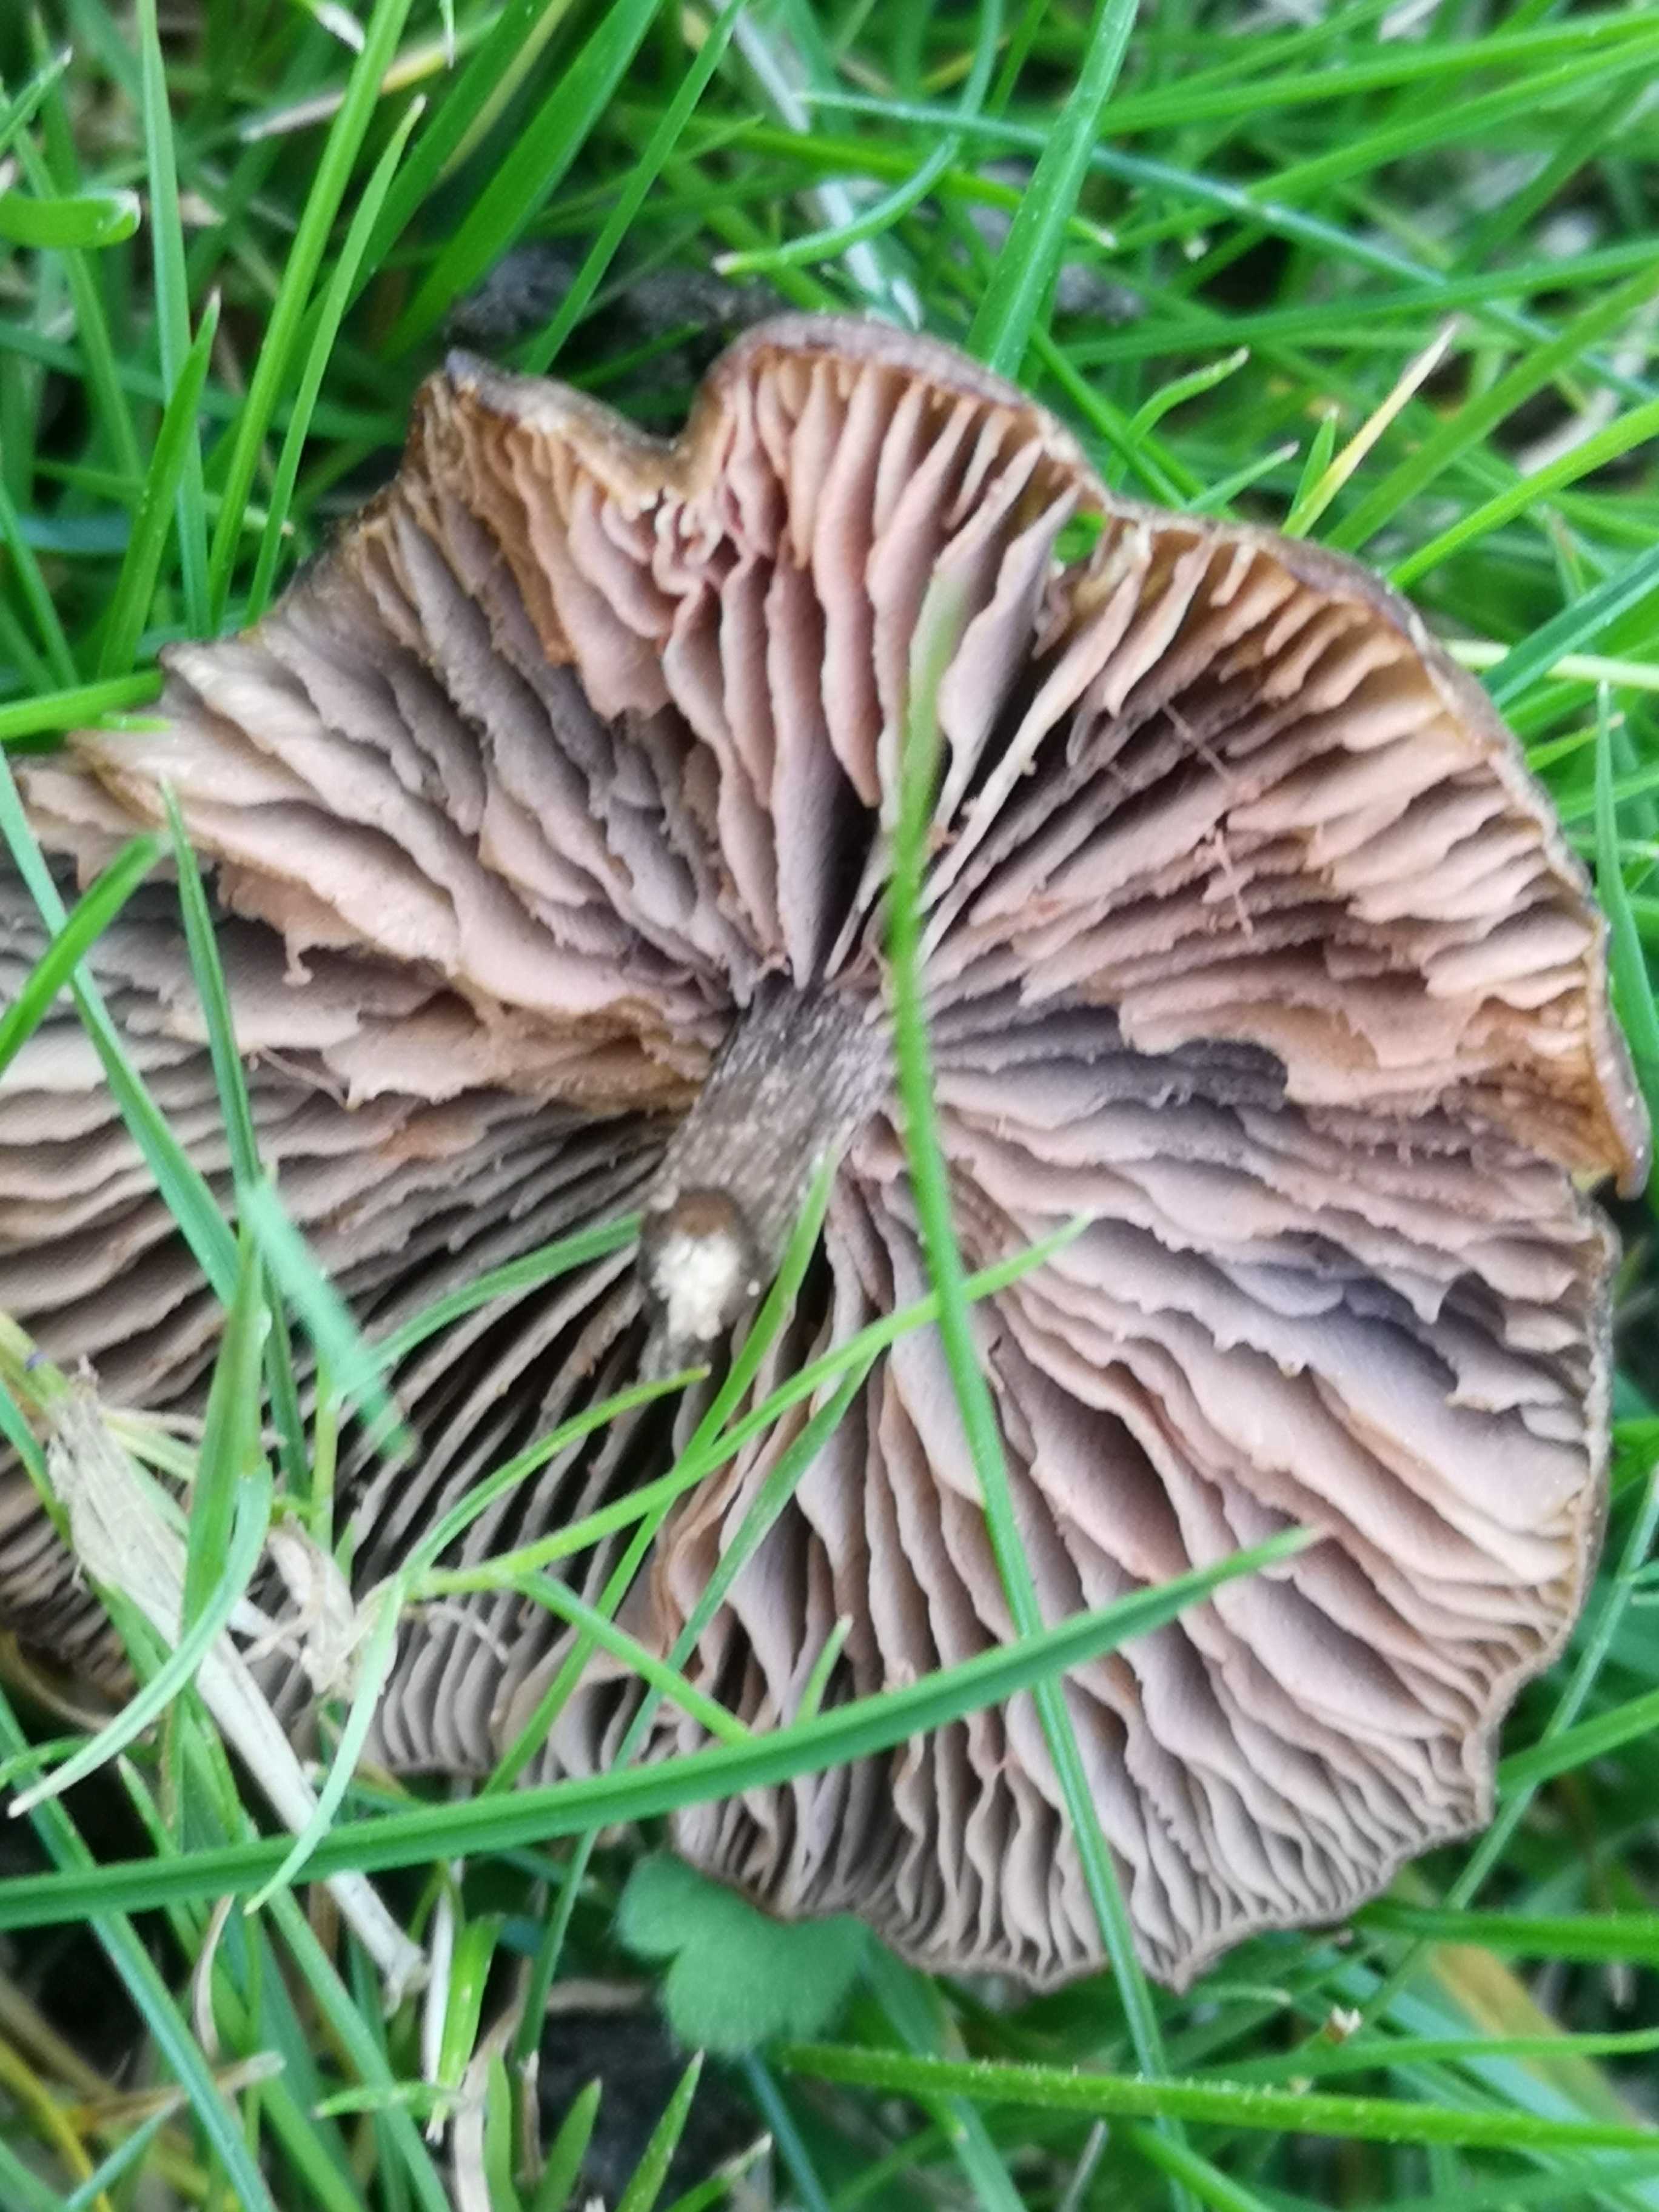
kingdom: Fungi
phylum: Basidiomycota
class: Agaricomycetes
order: Agaricales
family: Entolomataceae
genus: Entoloma
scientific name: Entoloma
